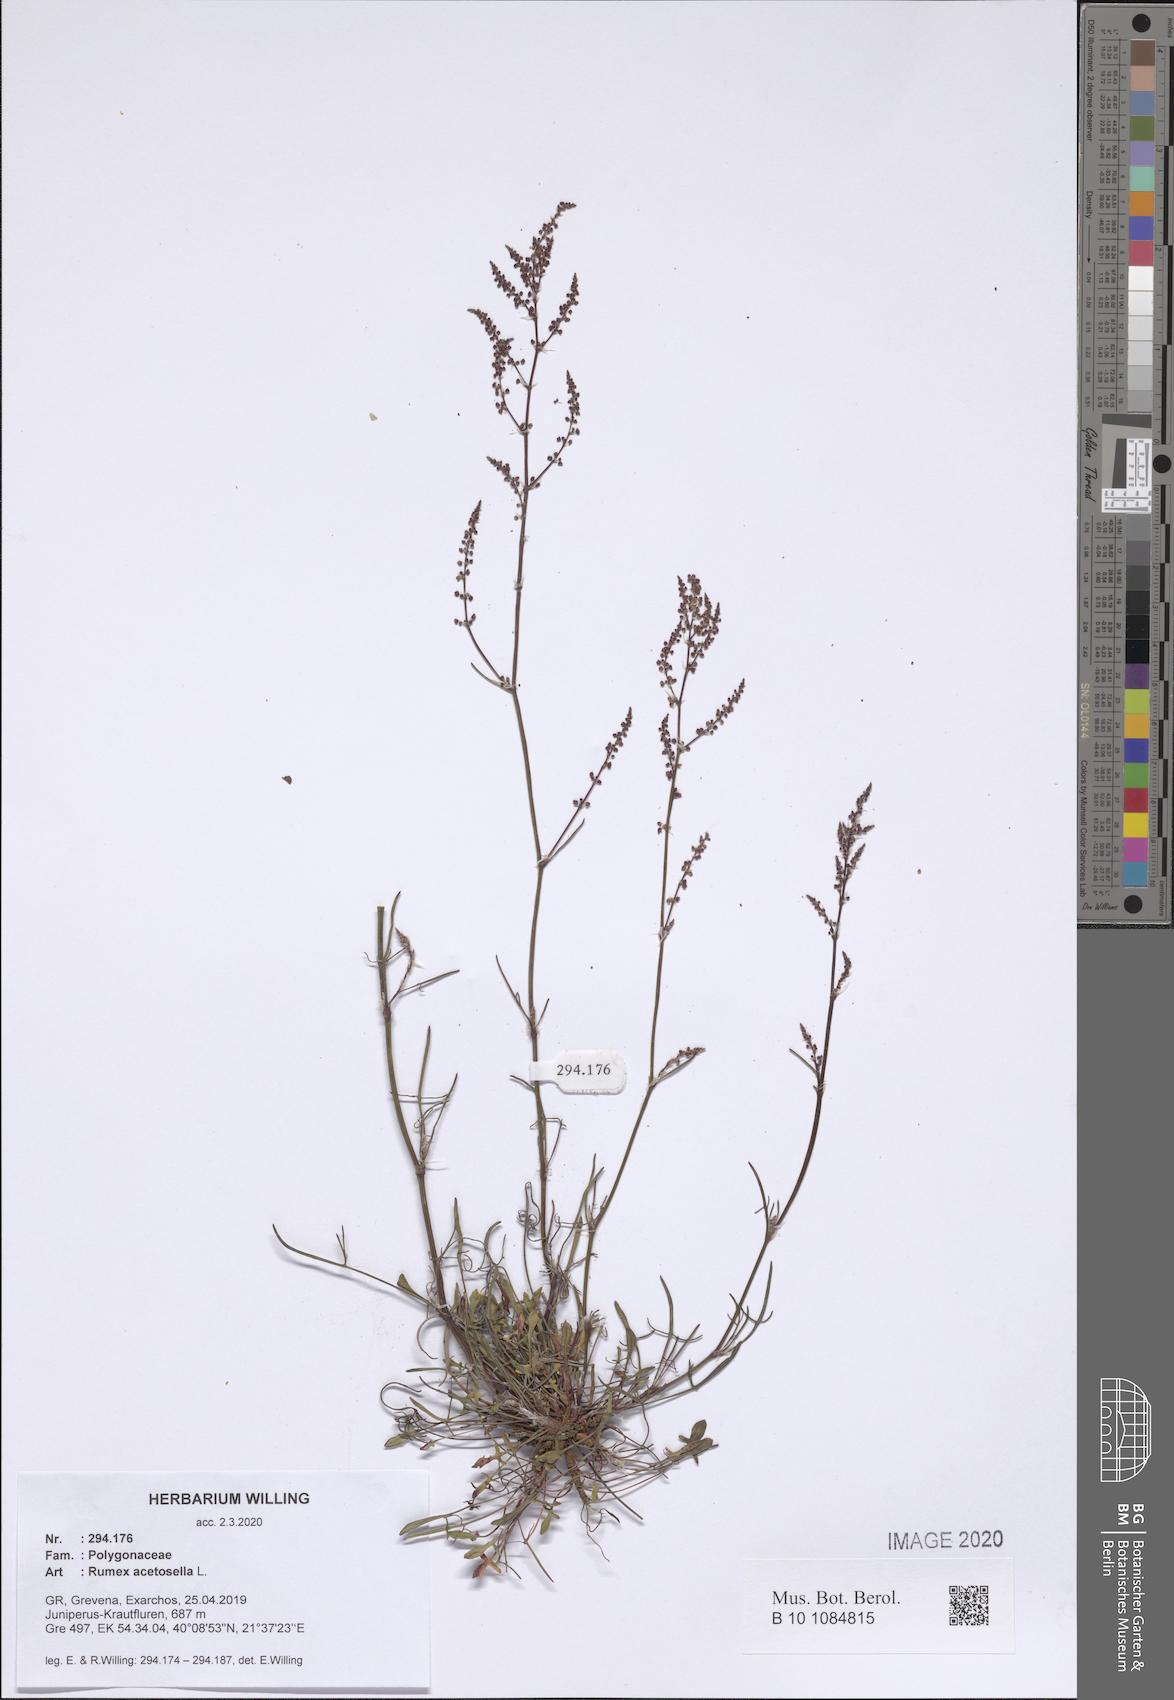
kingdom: Plantae
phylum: Tracheophyta
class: Magnoliopsida
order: Caryophyllales
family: Polygonaceae
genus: Rumex
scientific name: Rumex acetosella
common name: Common sheep sorrel
